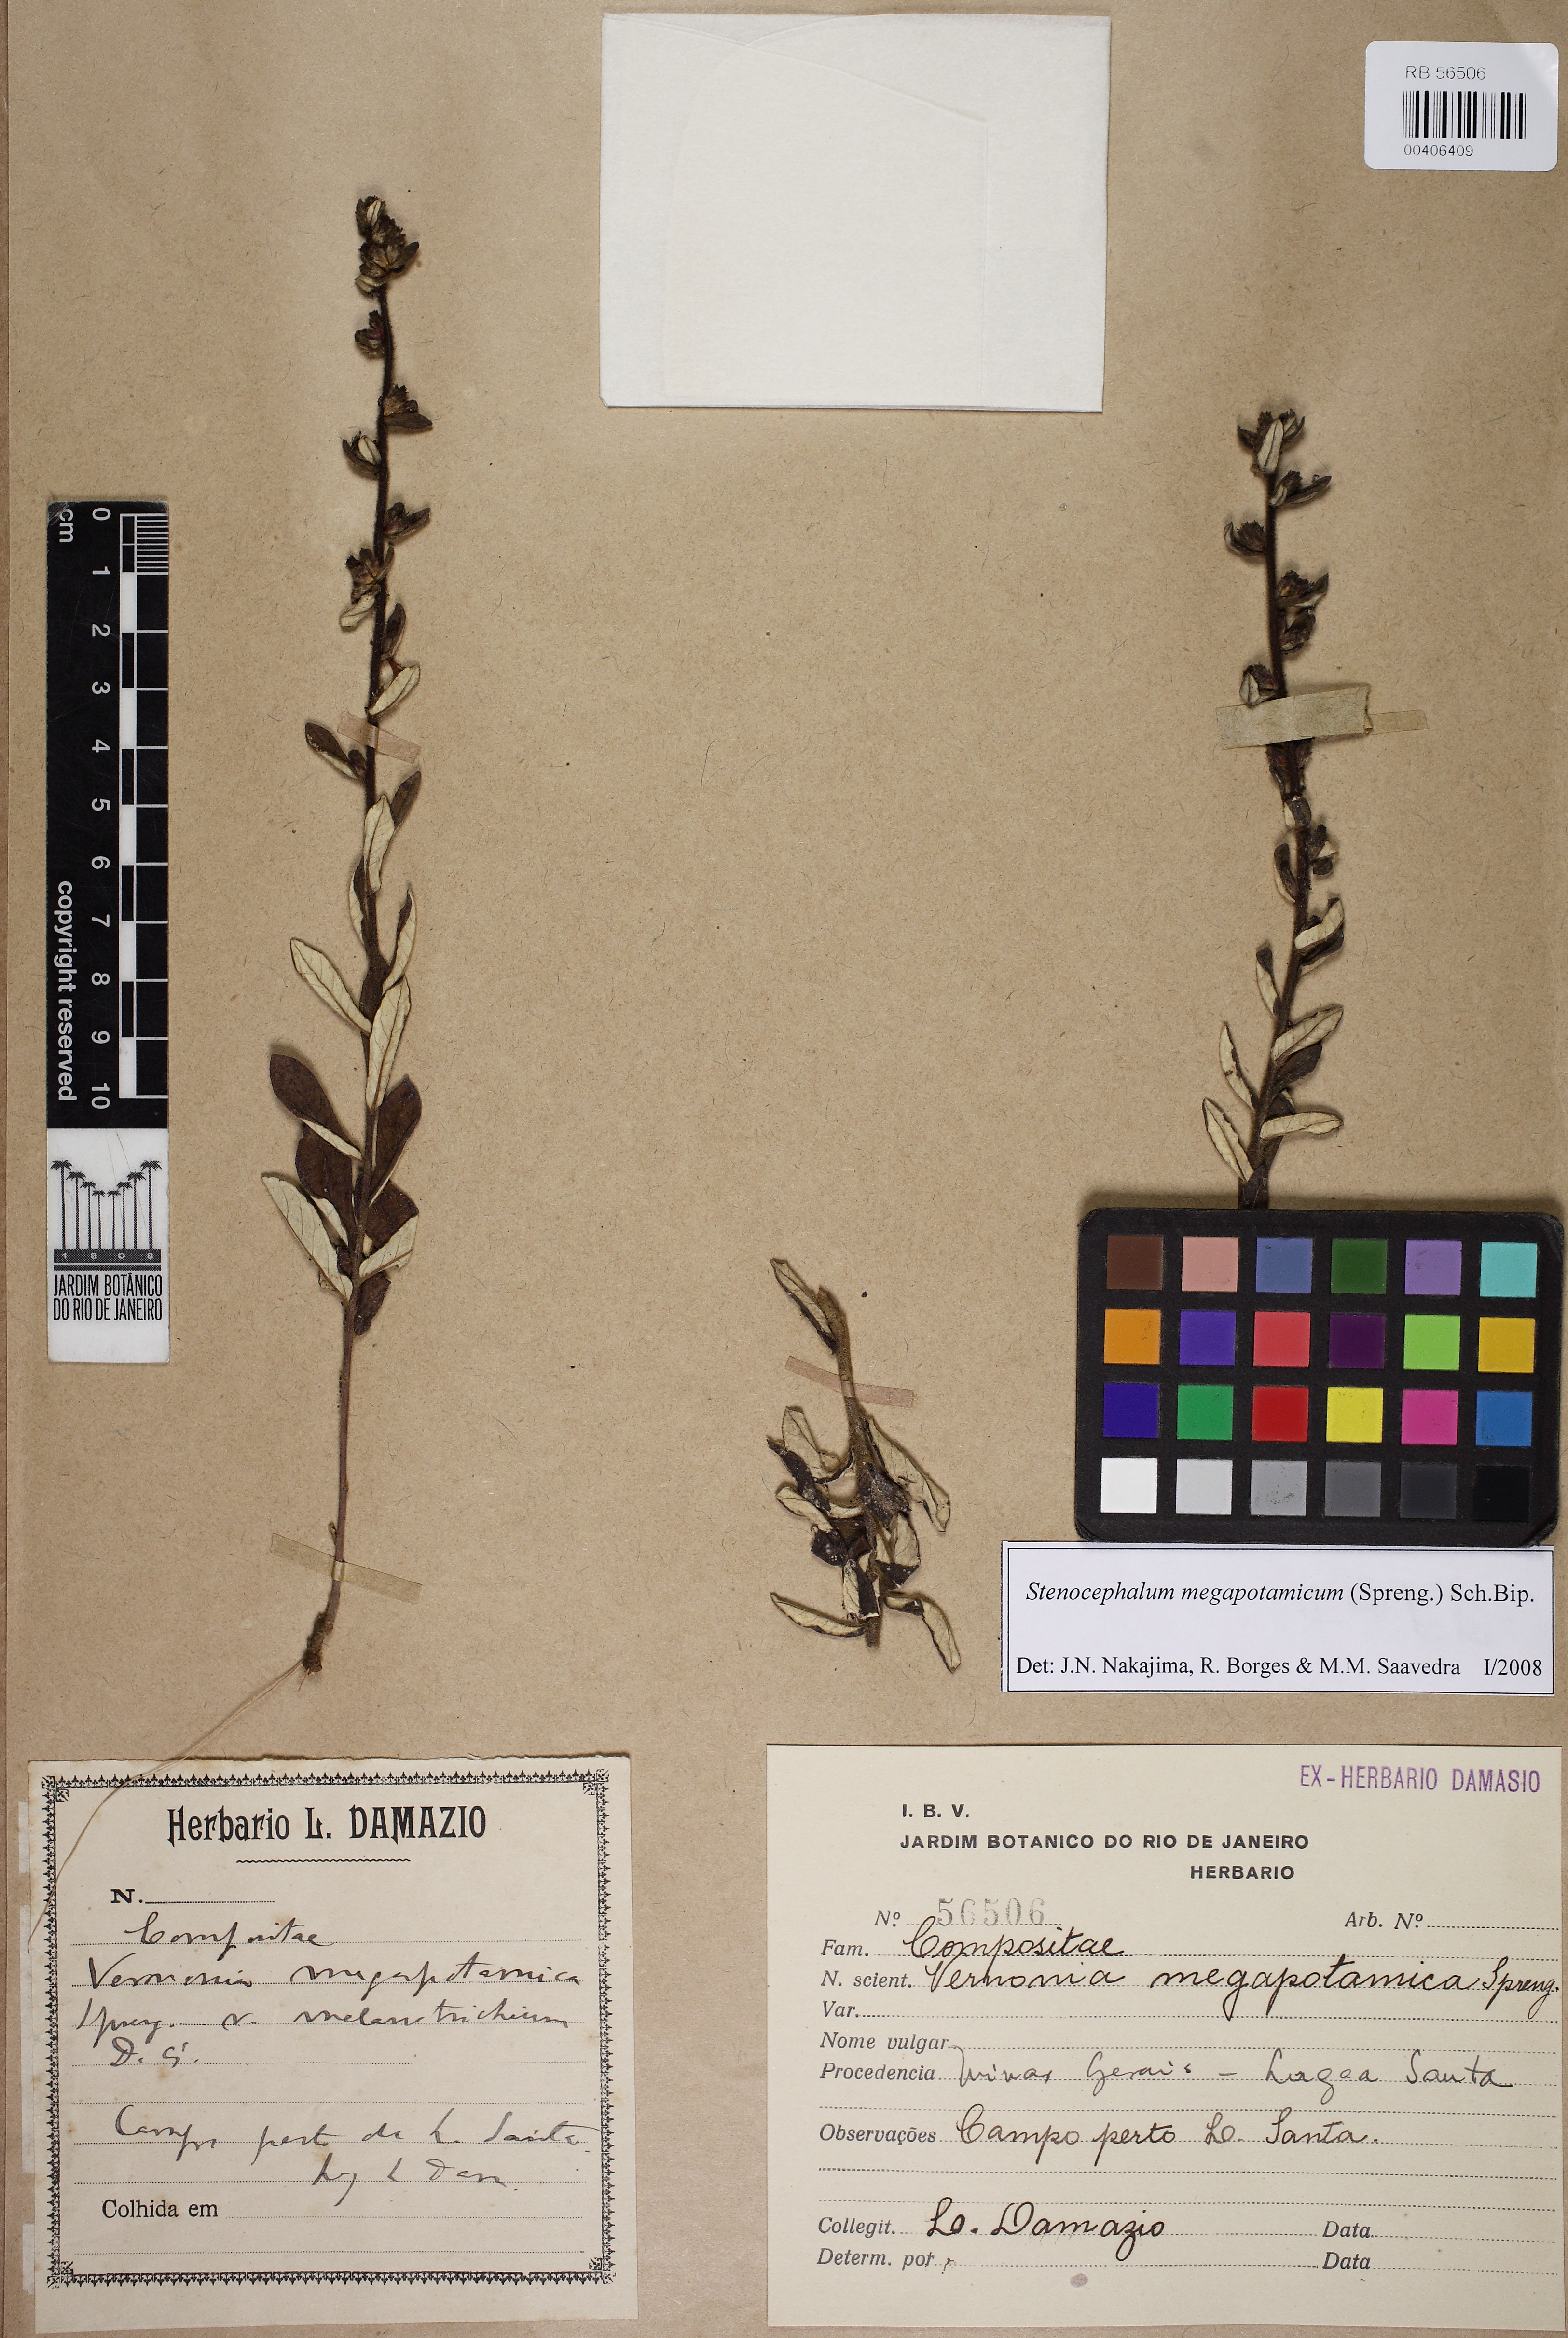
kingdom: Plantae
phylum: Tracheophyta
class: Magnoliopsida
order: Asterales
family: Asteraceae
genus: Stenocephalum
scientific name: Stenocephalum megapotamicum
